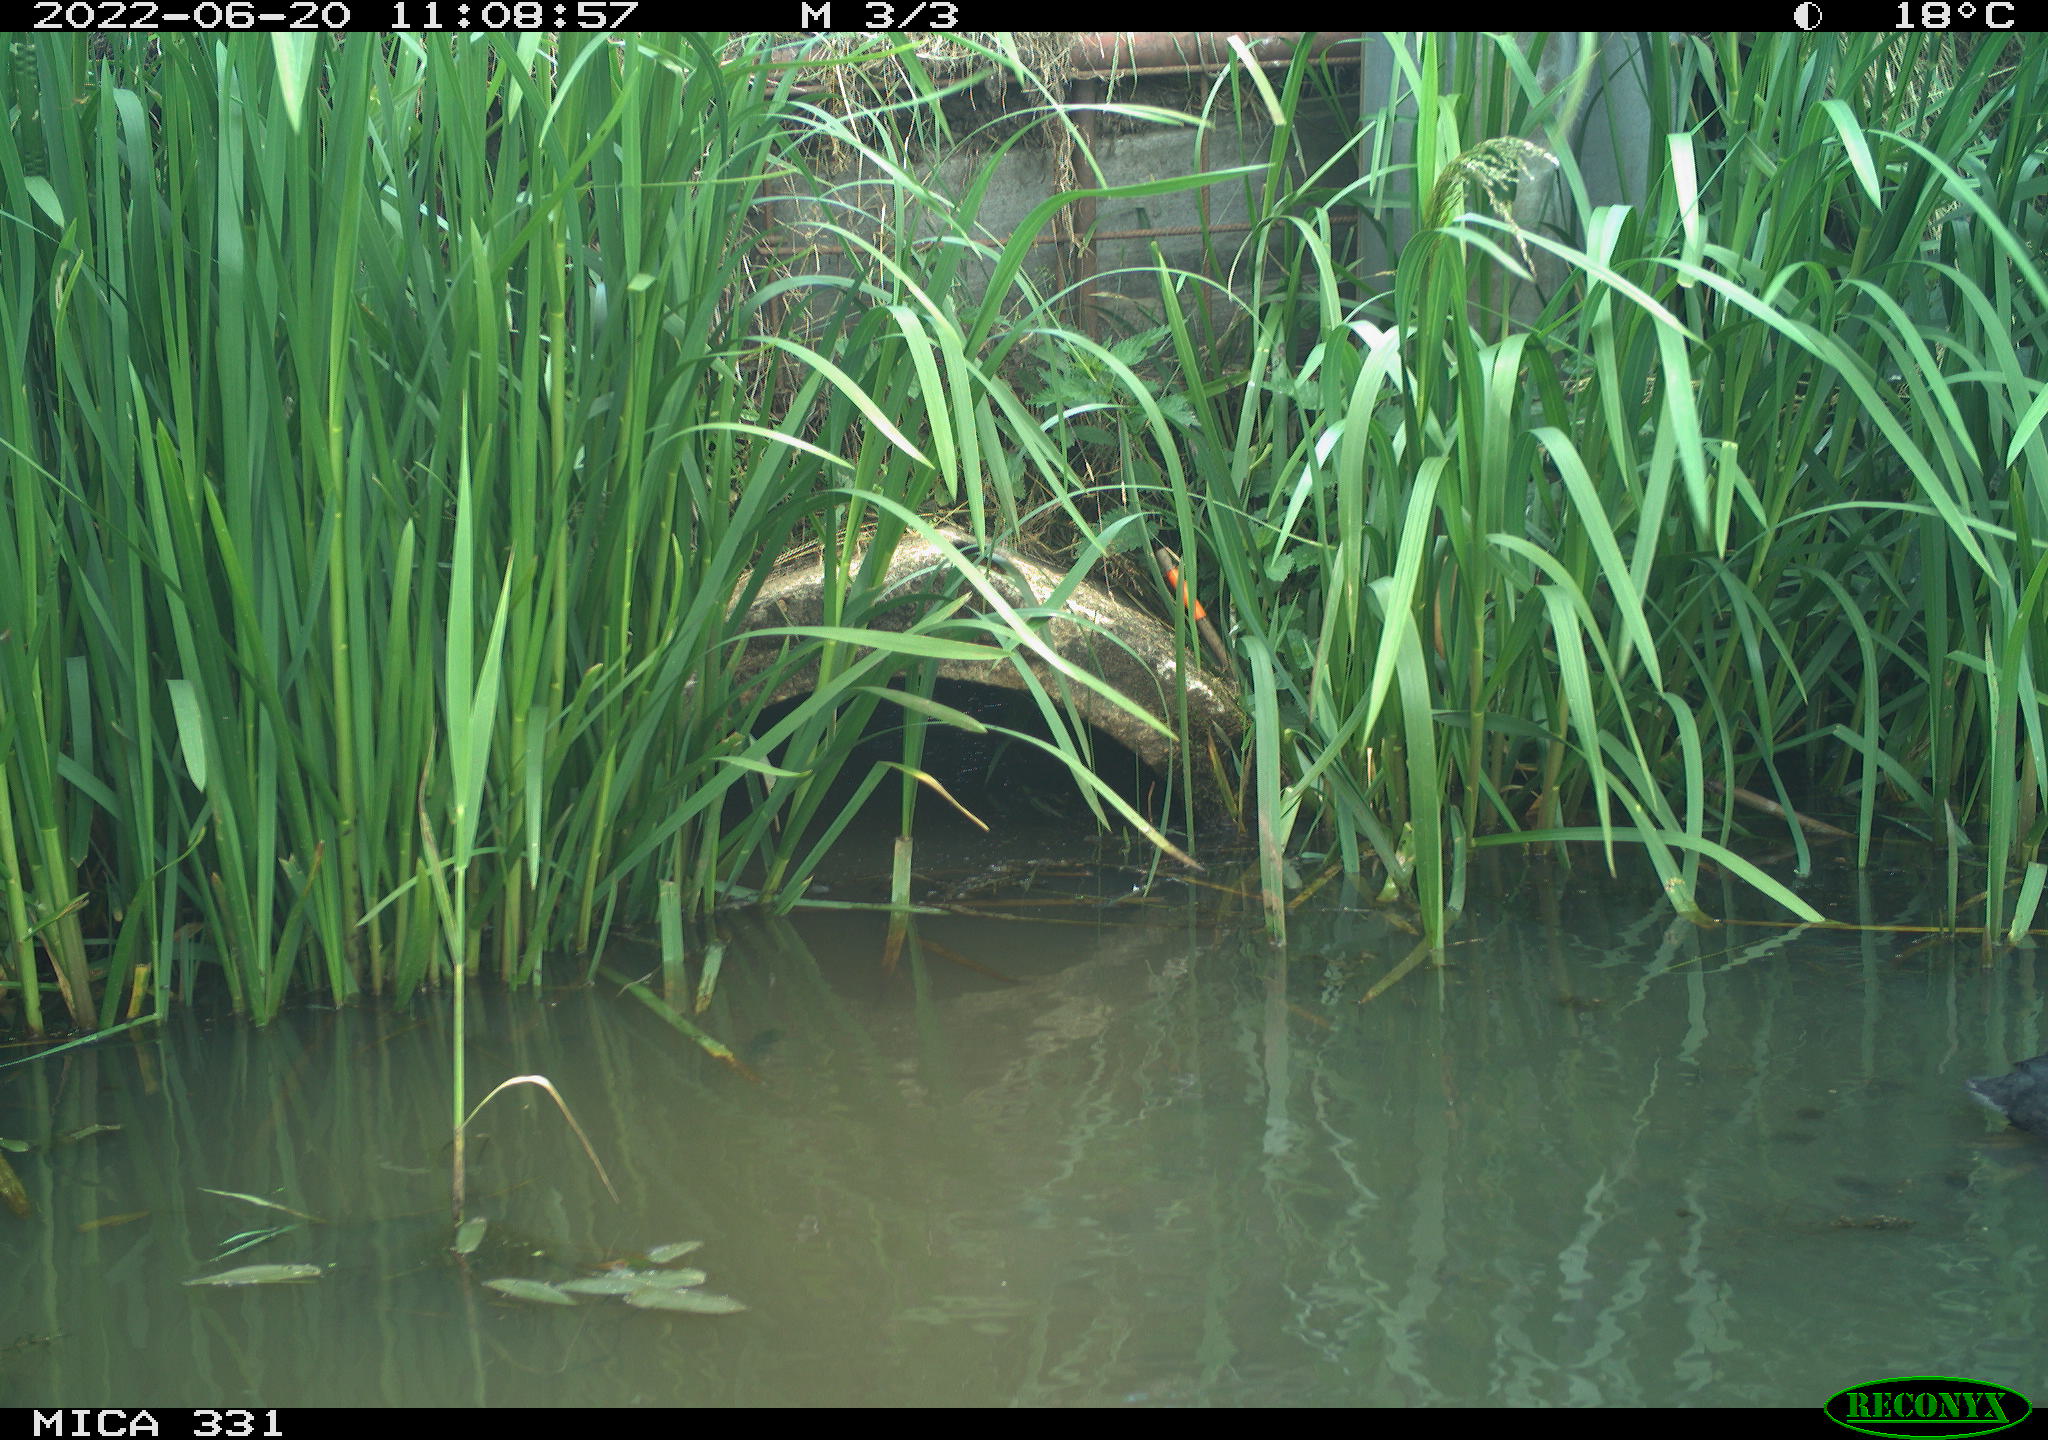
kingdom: Animalia
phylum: Chordata
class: Aves
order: Gruiformes
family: Rallidae
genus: Fulica
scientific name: Fulica atra
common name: Eurasian coot
